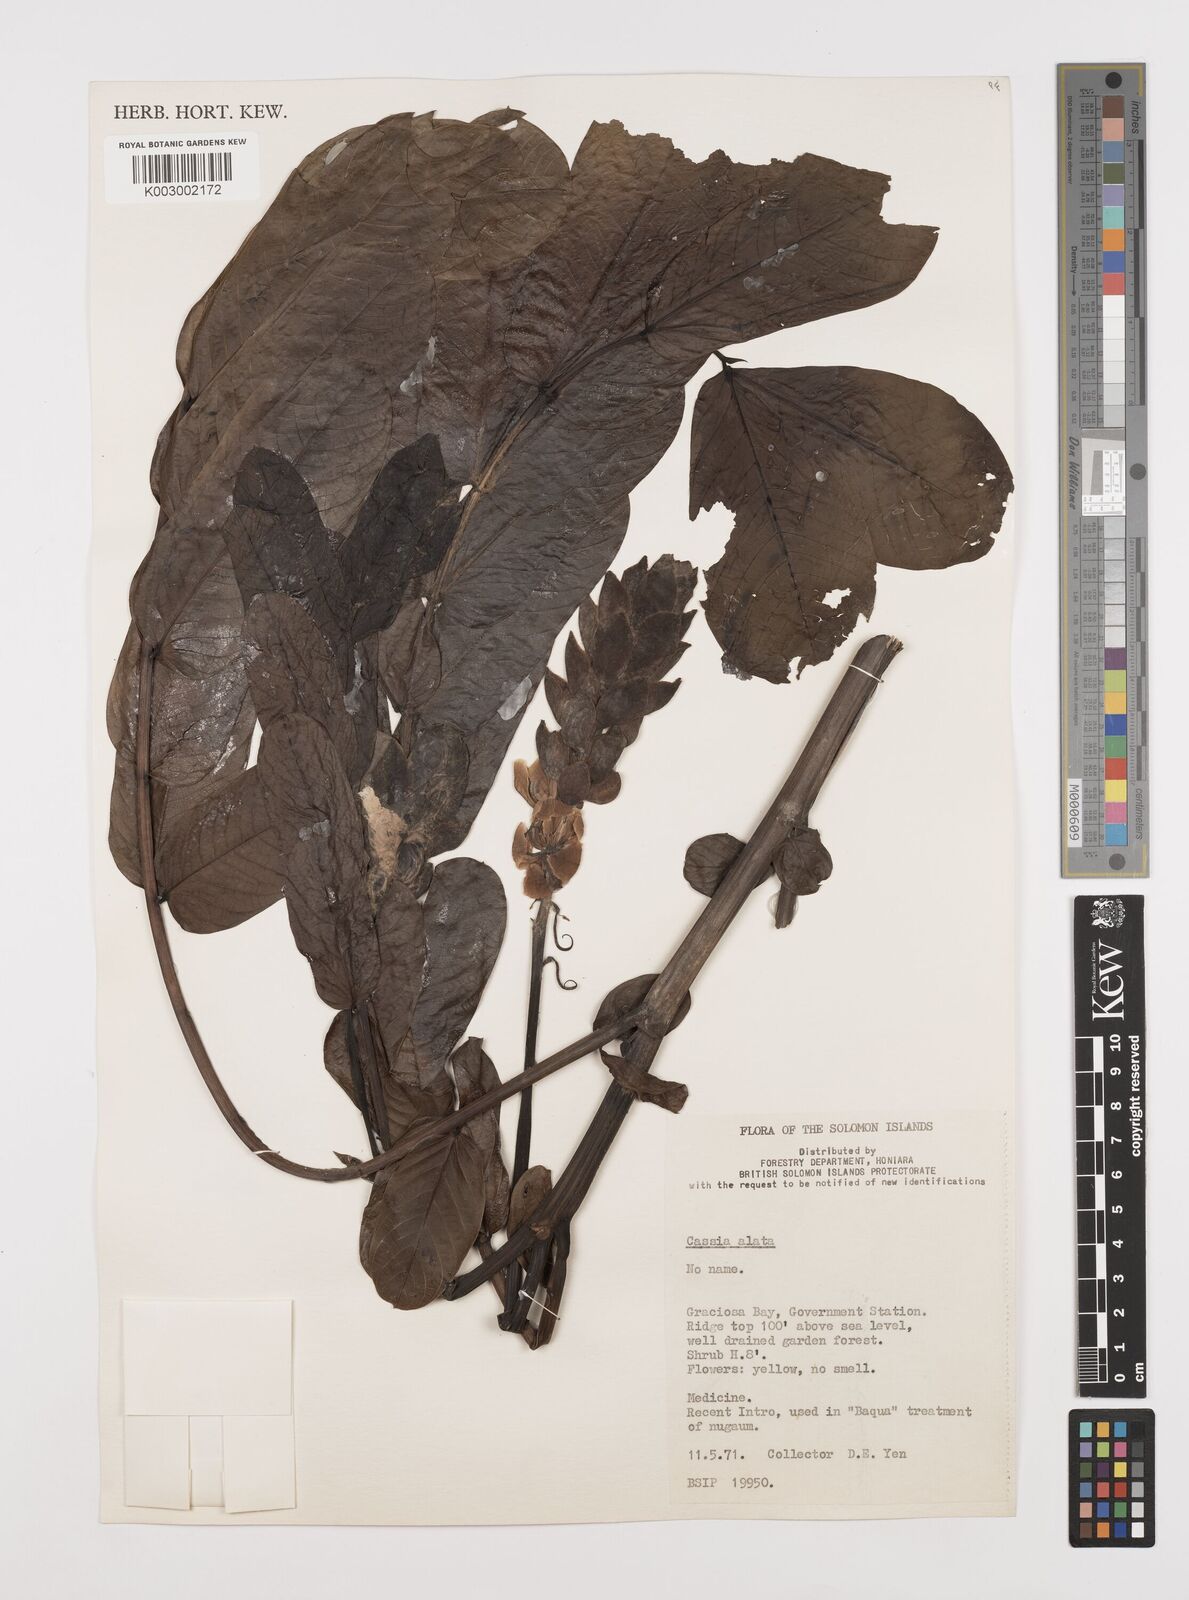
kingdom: Plantae
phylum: Tracheophyta
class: Magnoliopsida
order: Fabales
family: Fabaceae
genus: Senna
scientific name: Senna alata
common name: Emperor's candlesticks
